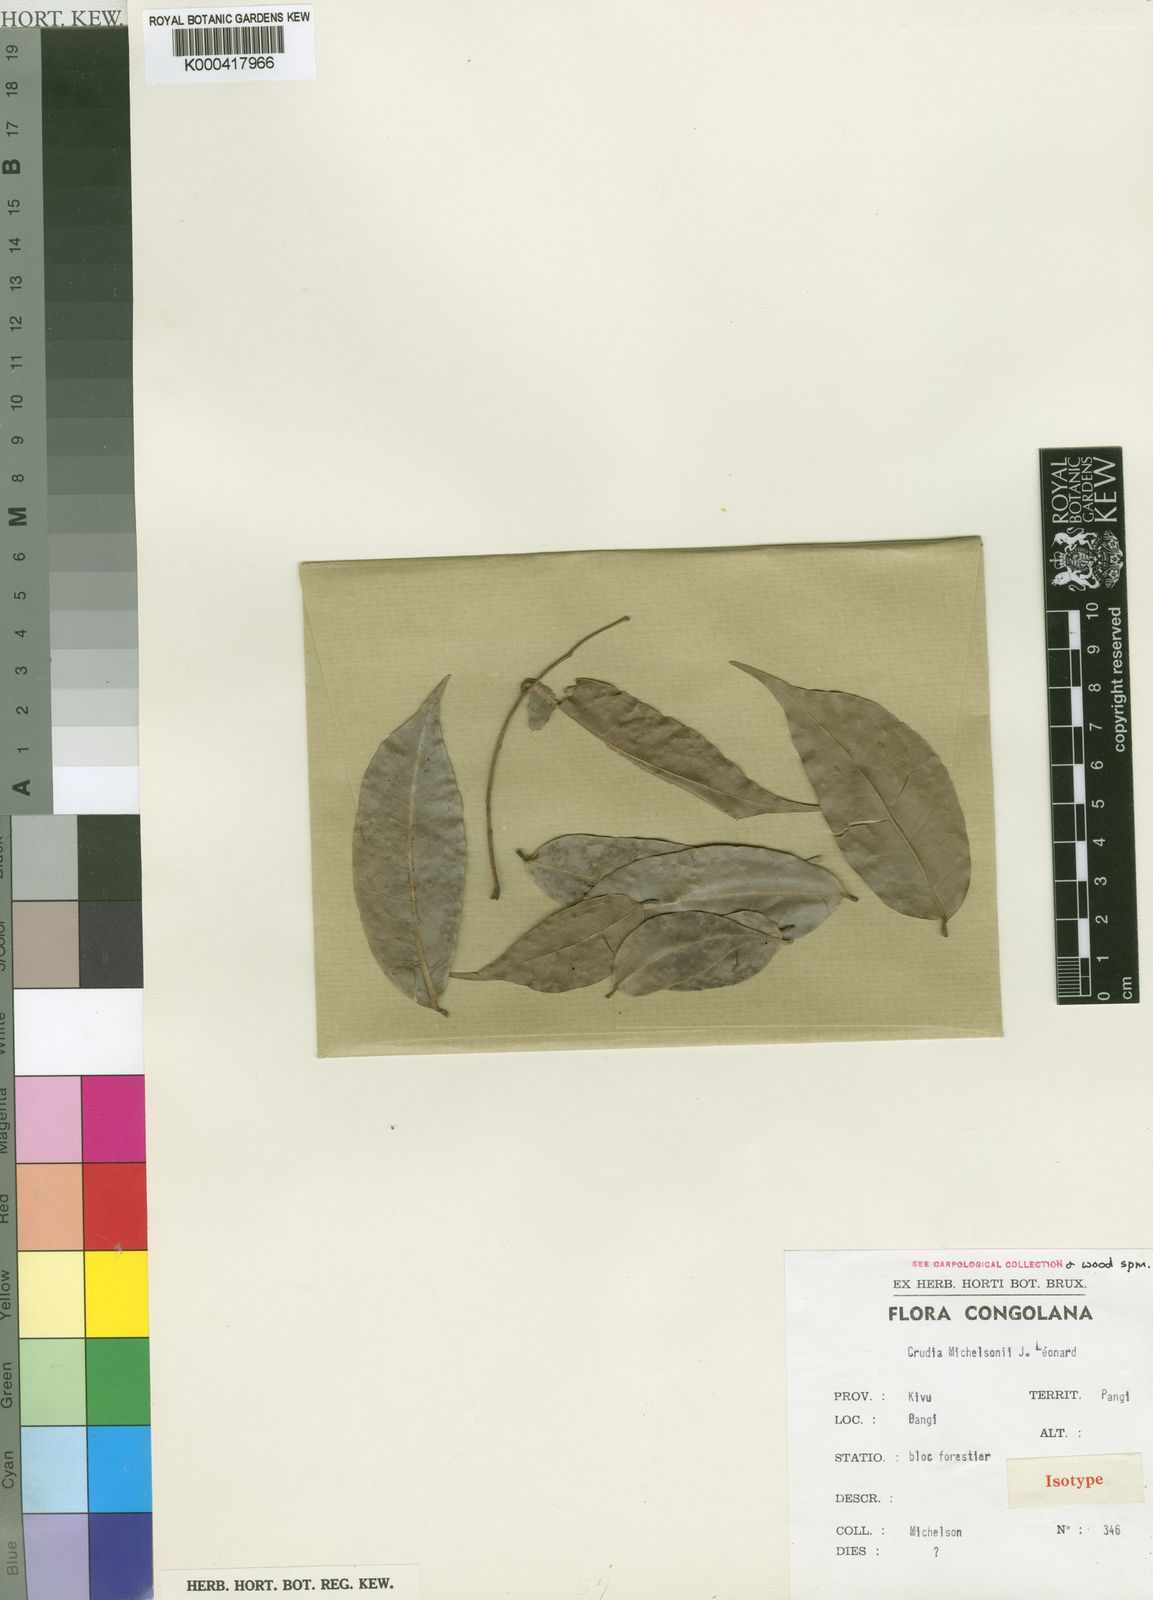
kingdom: Plantae
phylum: Tracheophyta
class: Magnoliopsida
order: Fabales
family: Fabaceae
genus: Crudia
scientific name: Crudia
